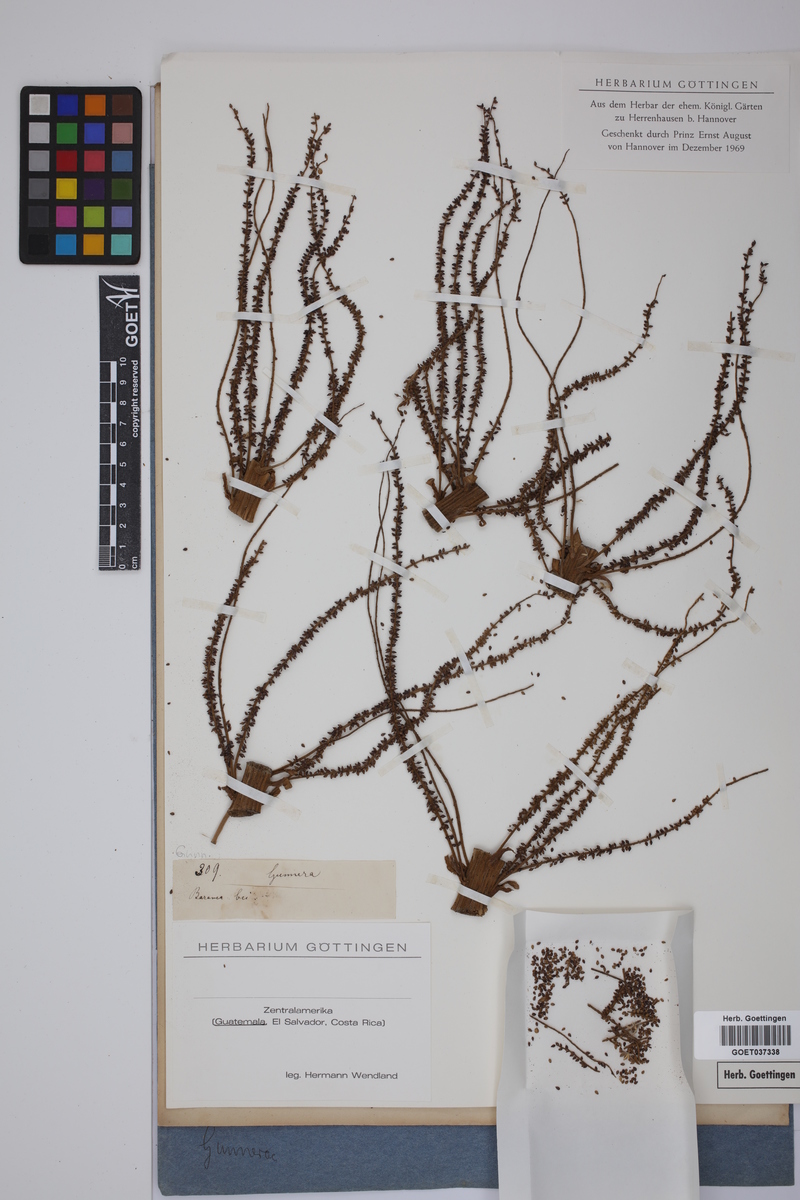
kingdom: Plantae
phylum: Tracheophyta
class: Magnoliopsida
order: Gunnerales
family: Gunneraceae
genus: Gunnera
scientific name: Gunnera
